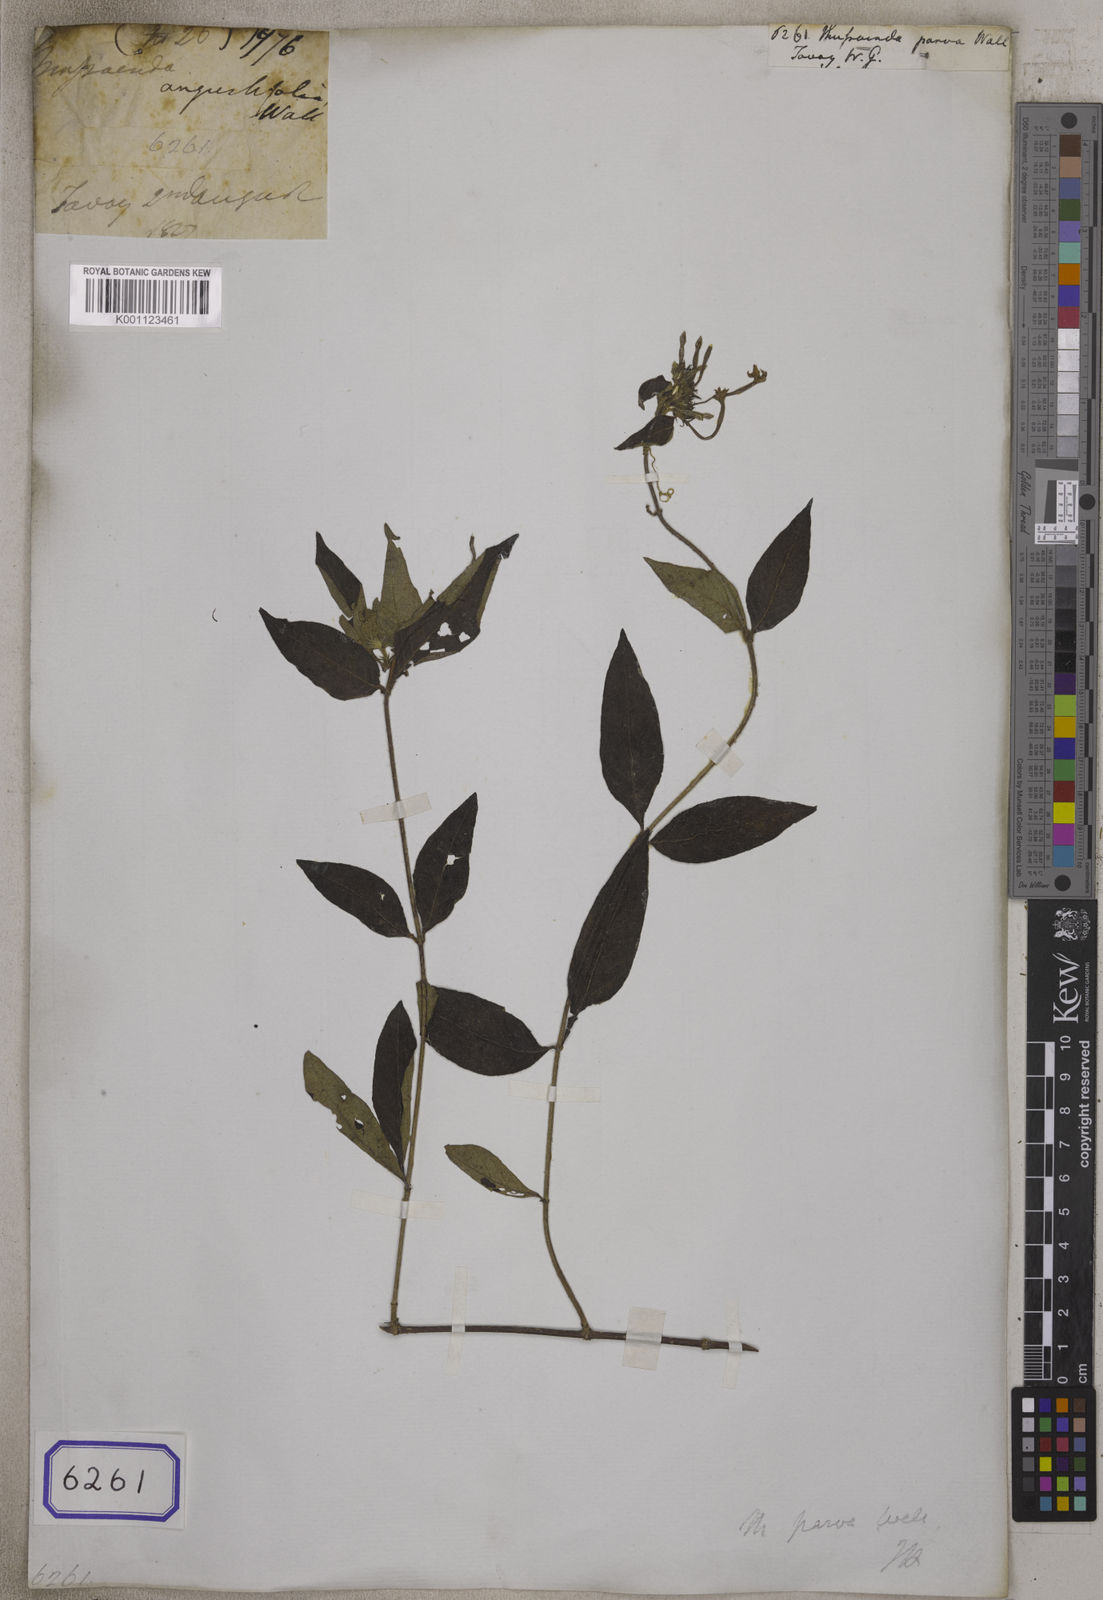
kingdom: Plantae
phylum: Tracheophyta
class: Magnoliopsida
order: Gentianales
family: Rubiaceae
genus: Mussaenda
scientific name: Mussaenda
